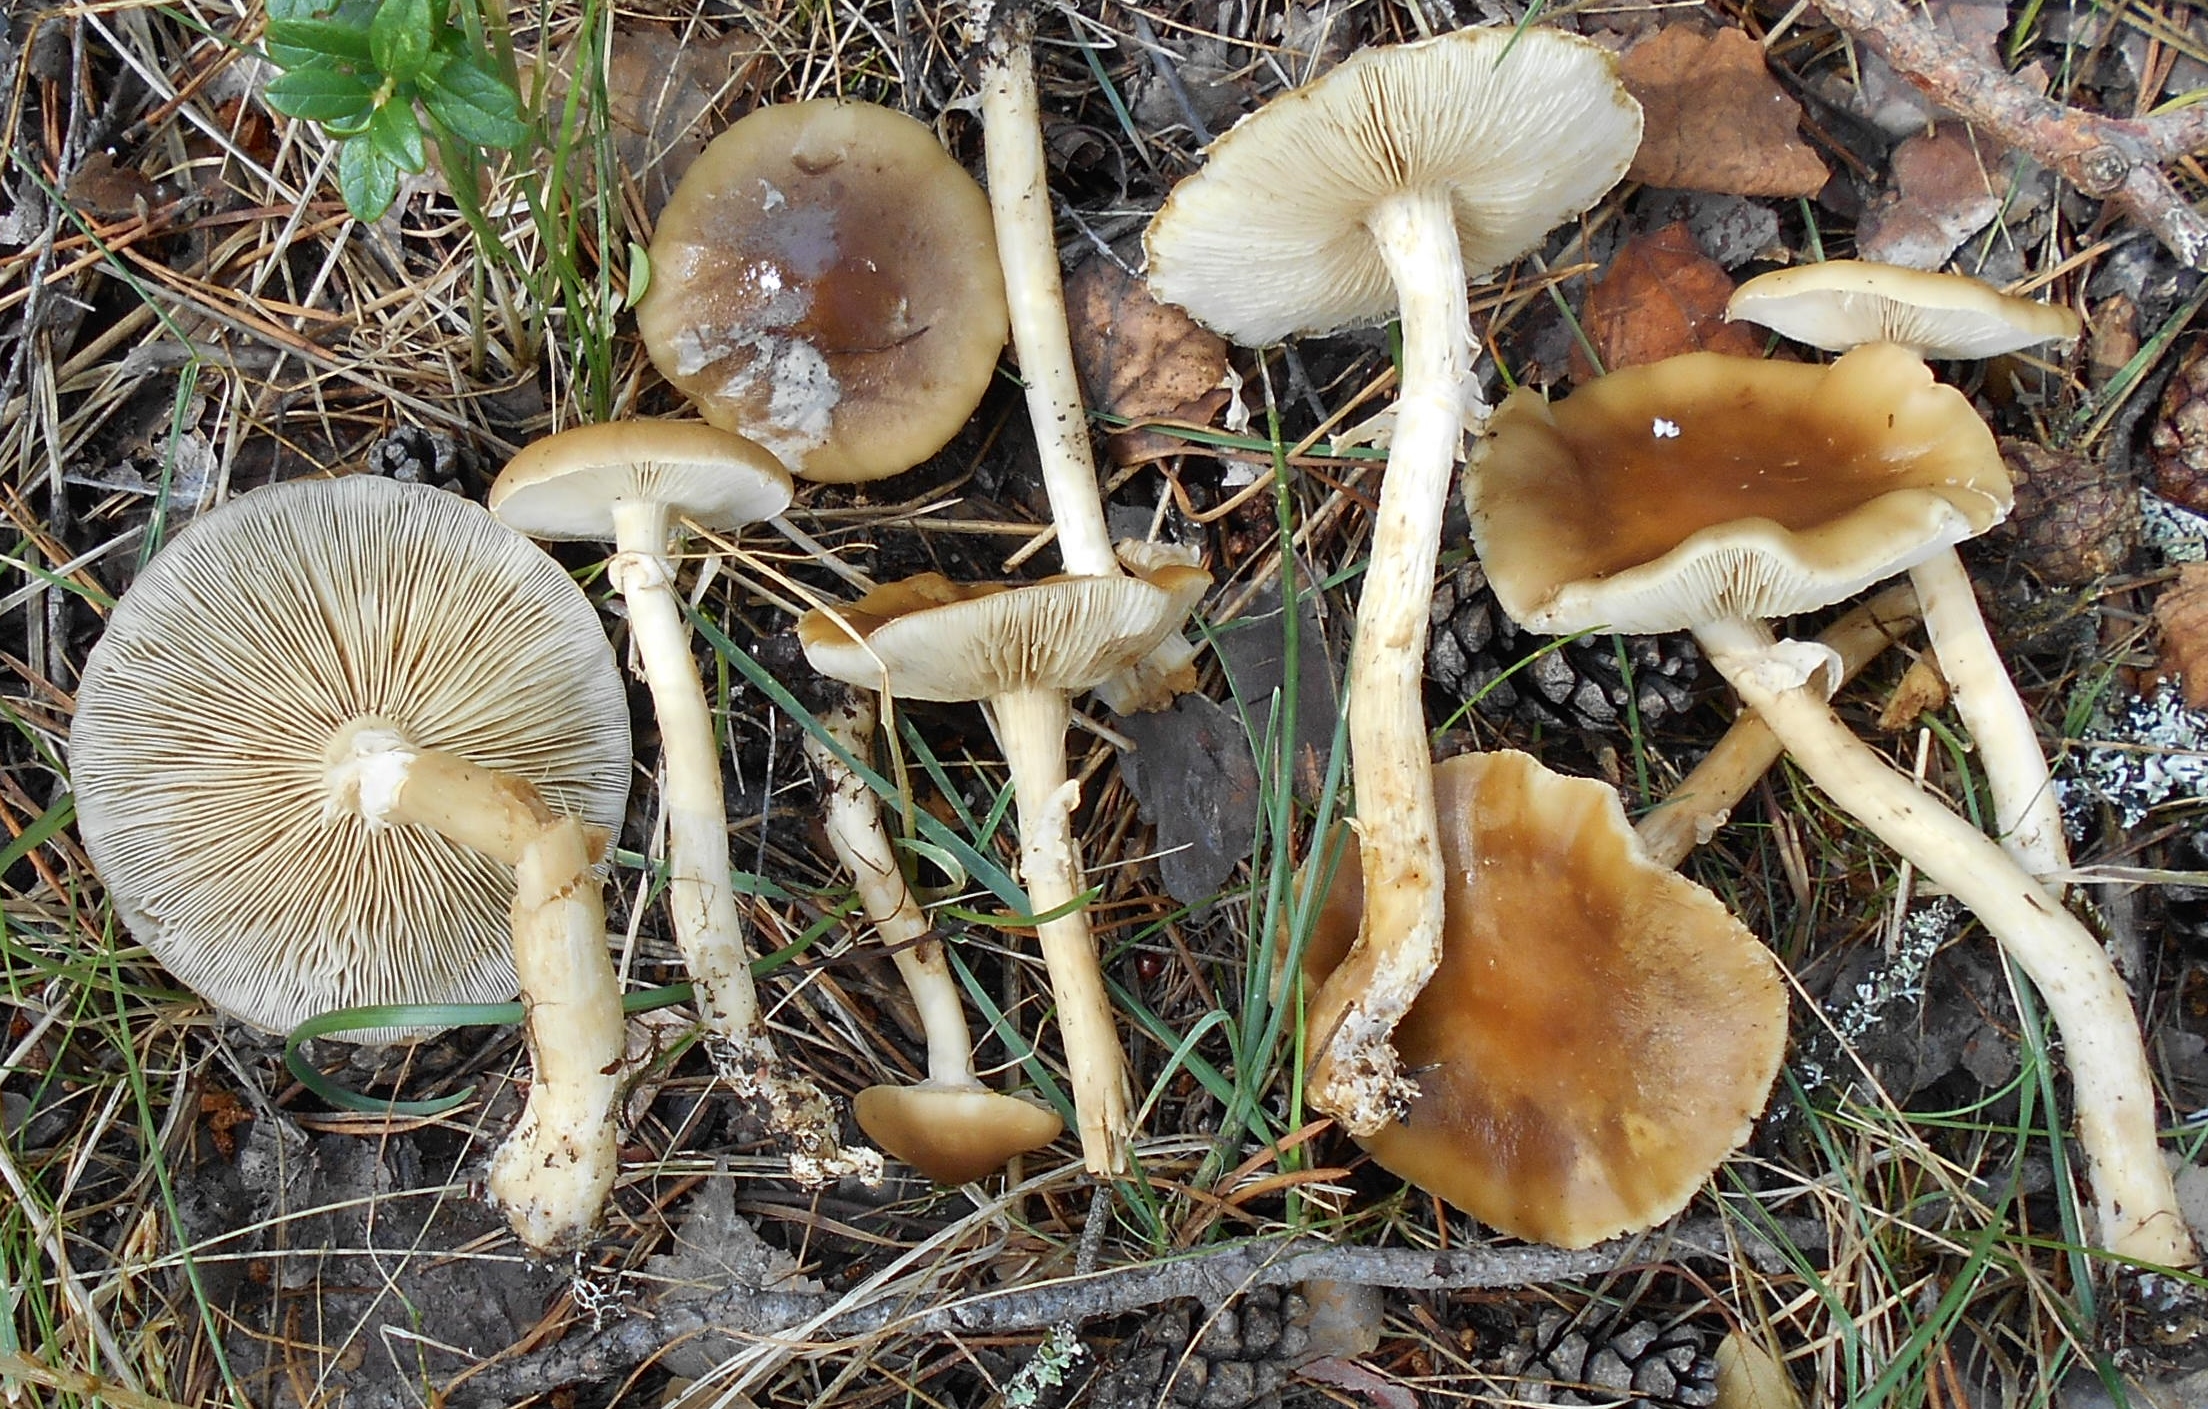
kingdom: Fungi
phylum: Basidiomycota
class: Agaricomycetes
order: Agaricales
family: Strophariaceae
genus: Agrocybe
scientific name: Agrocybe praecox
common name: Spring fieldcap
